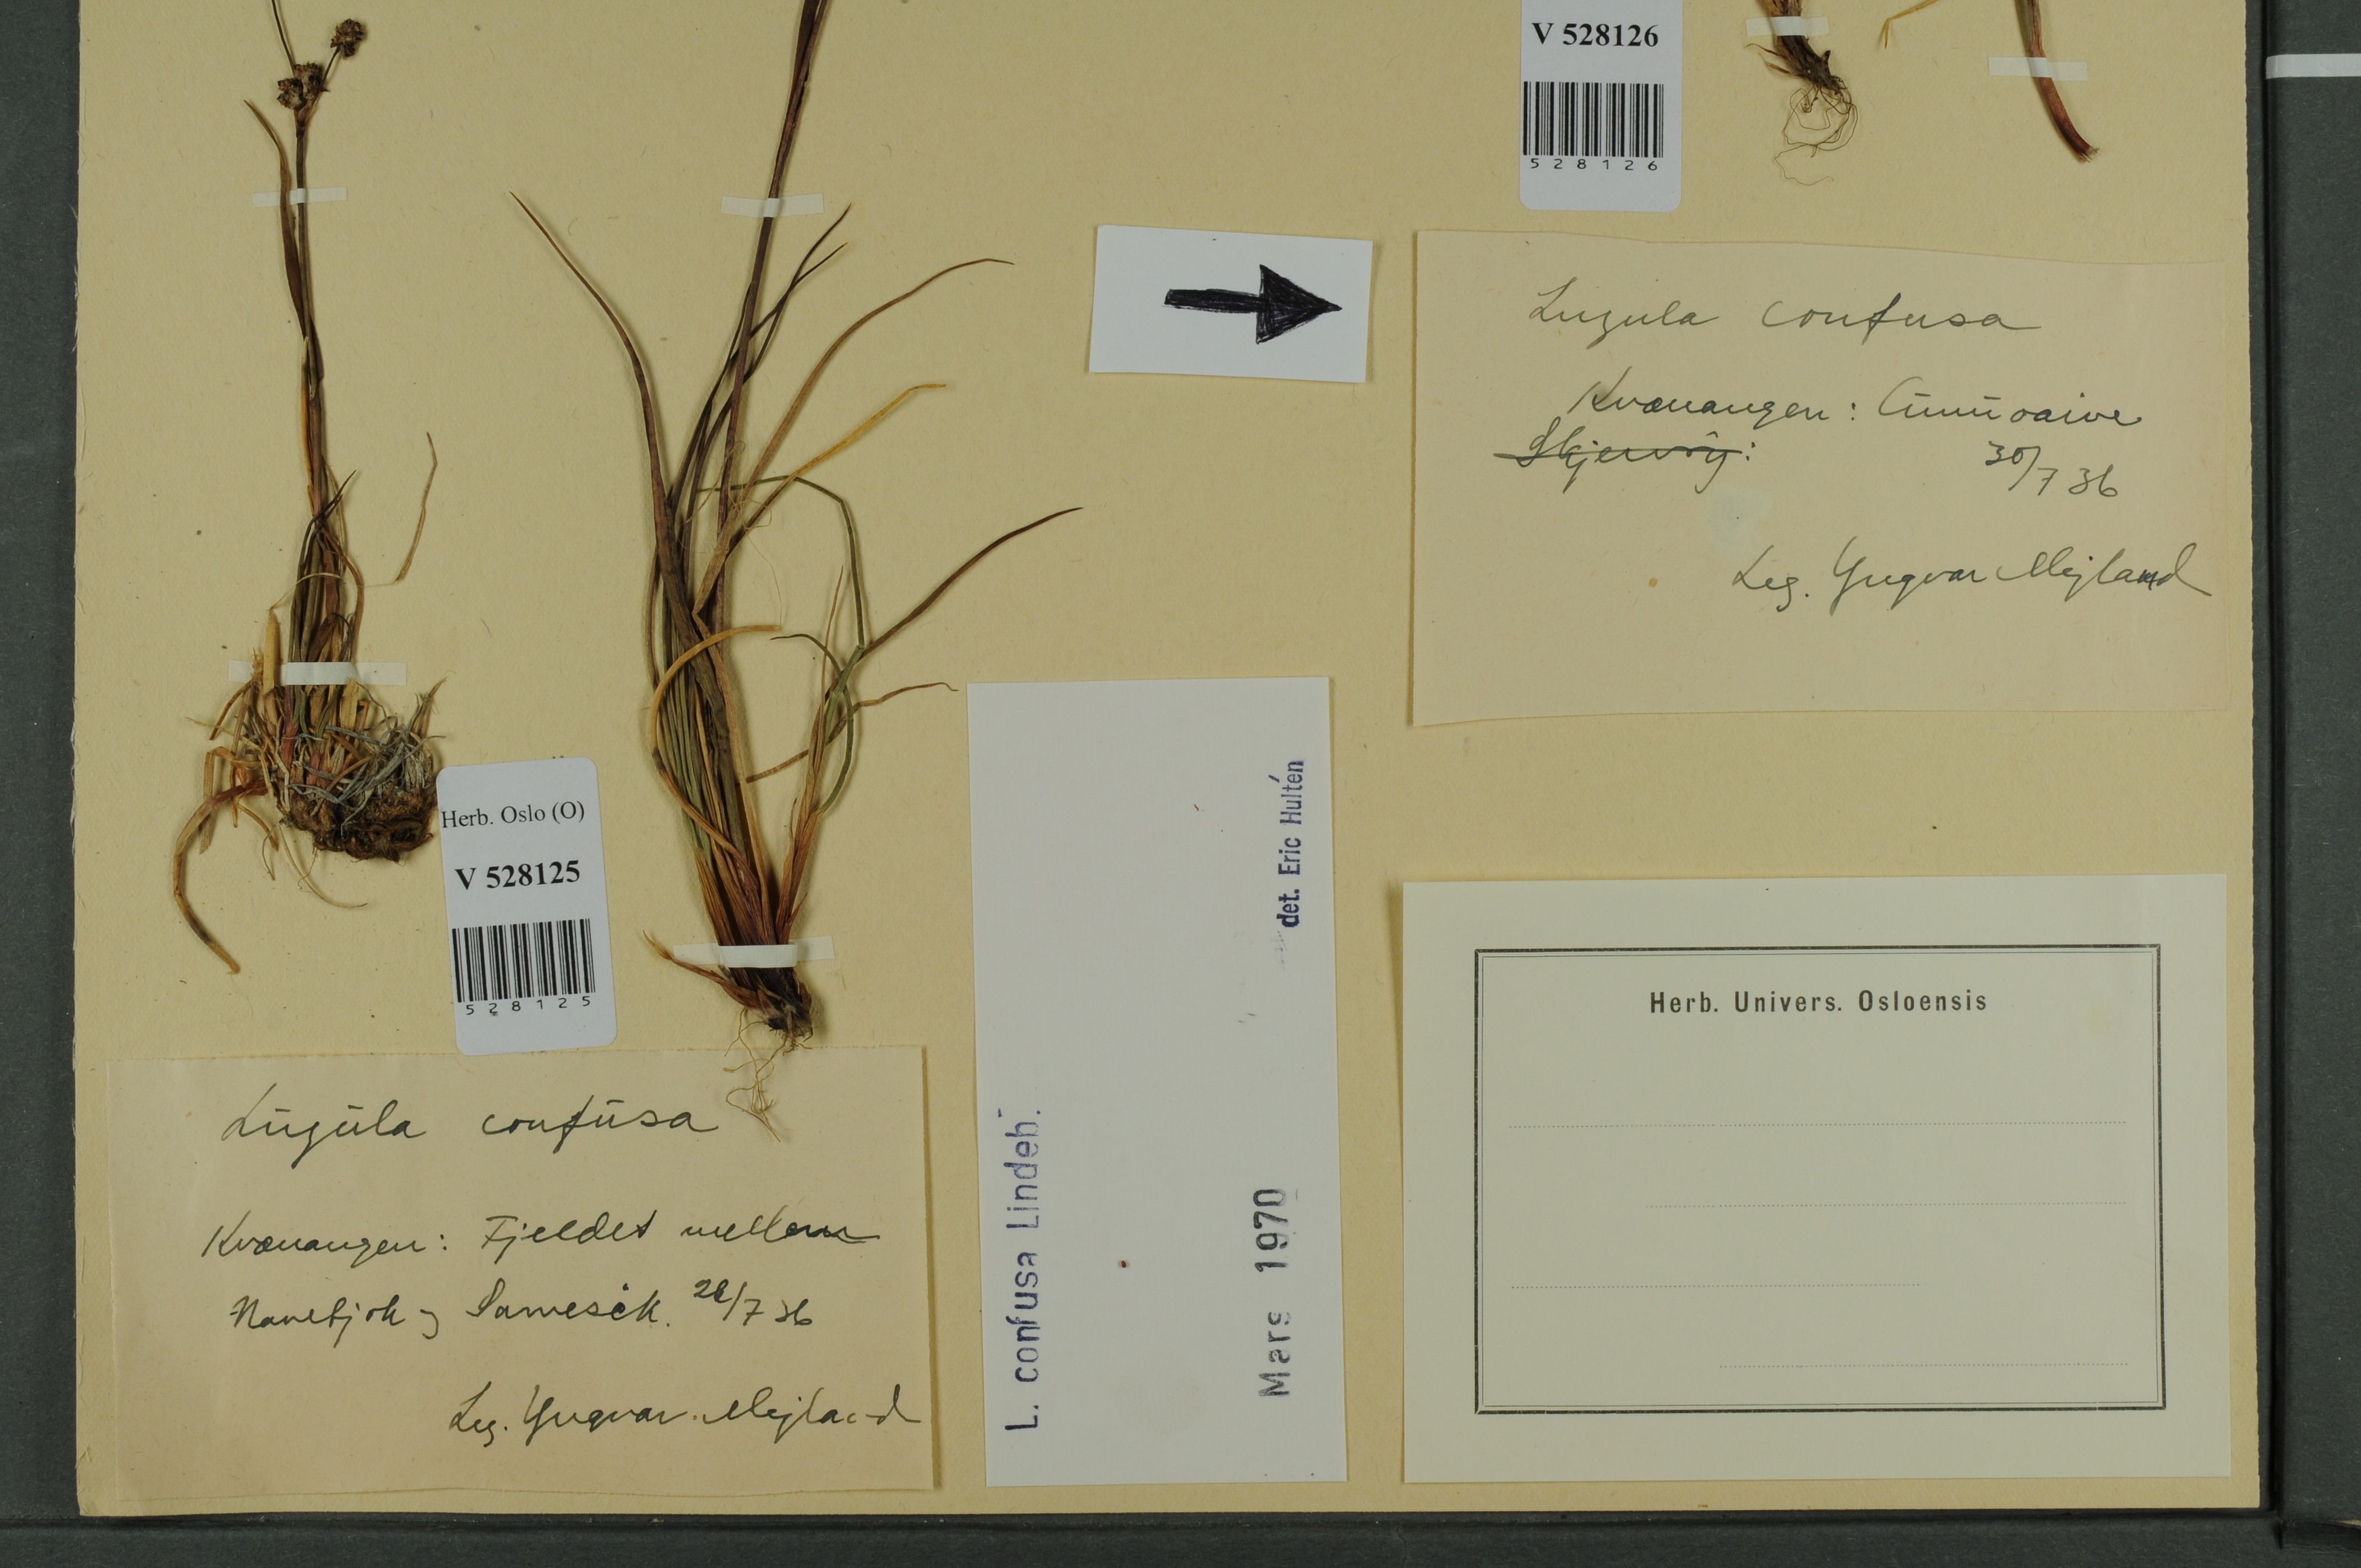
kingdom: Plantae
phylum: Tracheophyta
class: Liliopsida
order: Poales
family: Juncaceae
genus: Luzula
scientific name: Luzula confusa
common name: Northern wood rush
